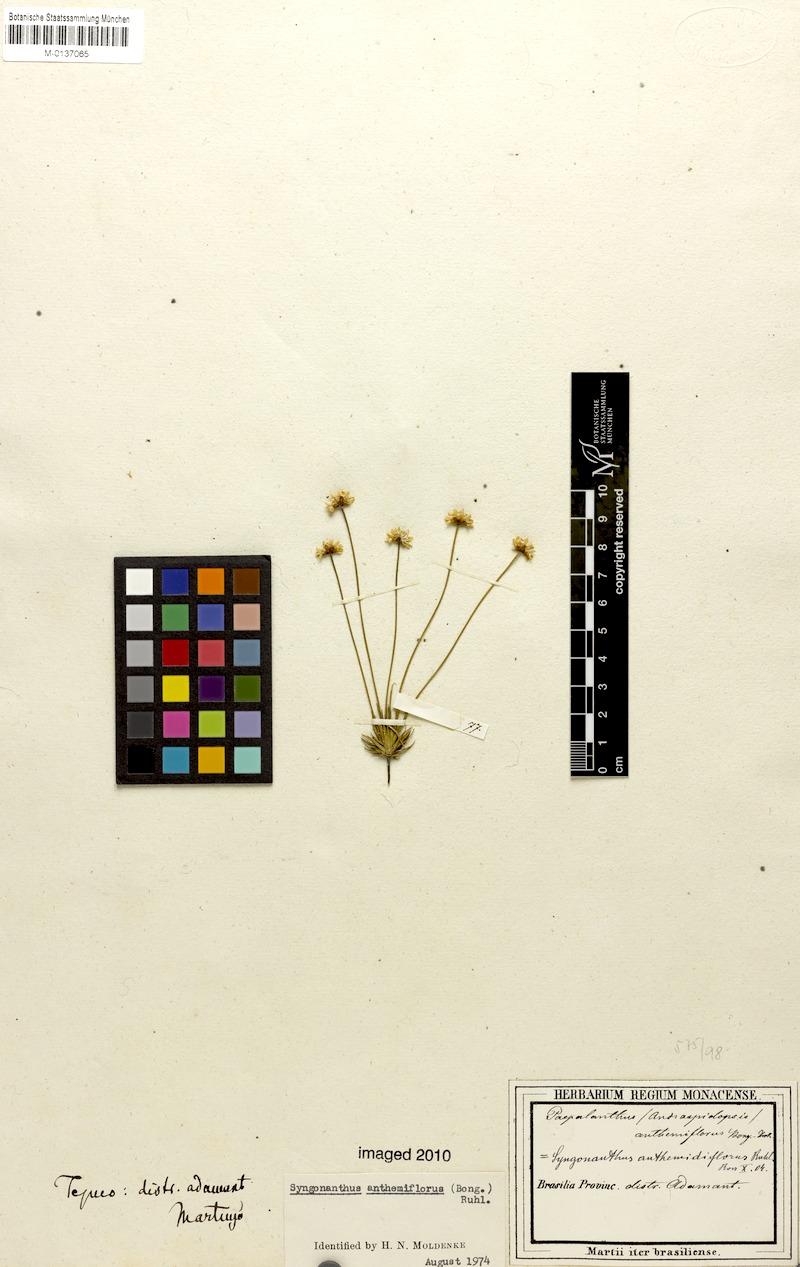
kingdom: Plantae
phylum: Tracheophyta
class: Liliopsida
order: Poales
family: Eriocaulaceae
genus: Syngonanthus
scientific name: Syngonanthus anthemiflorus
